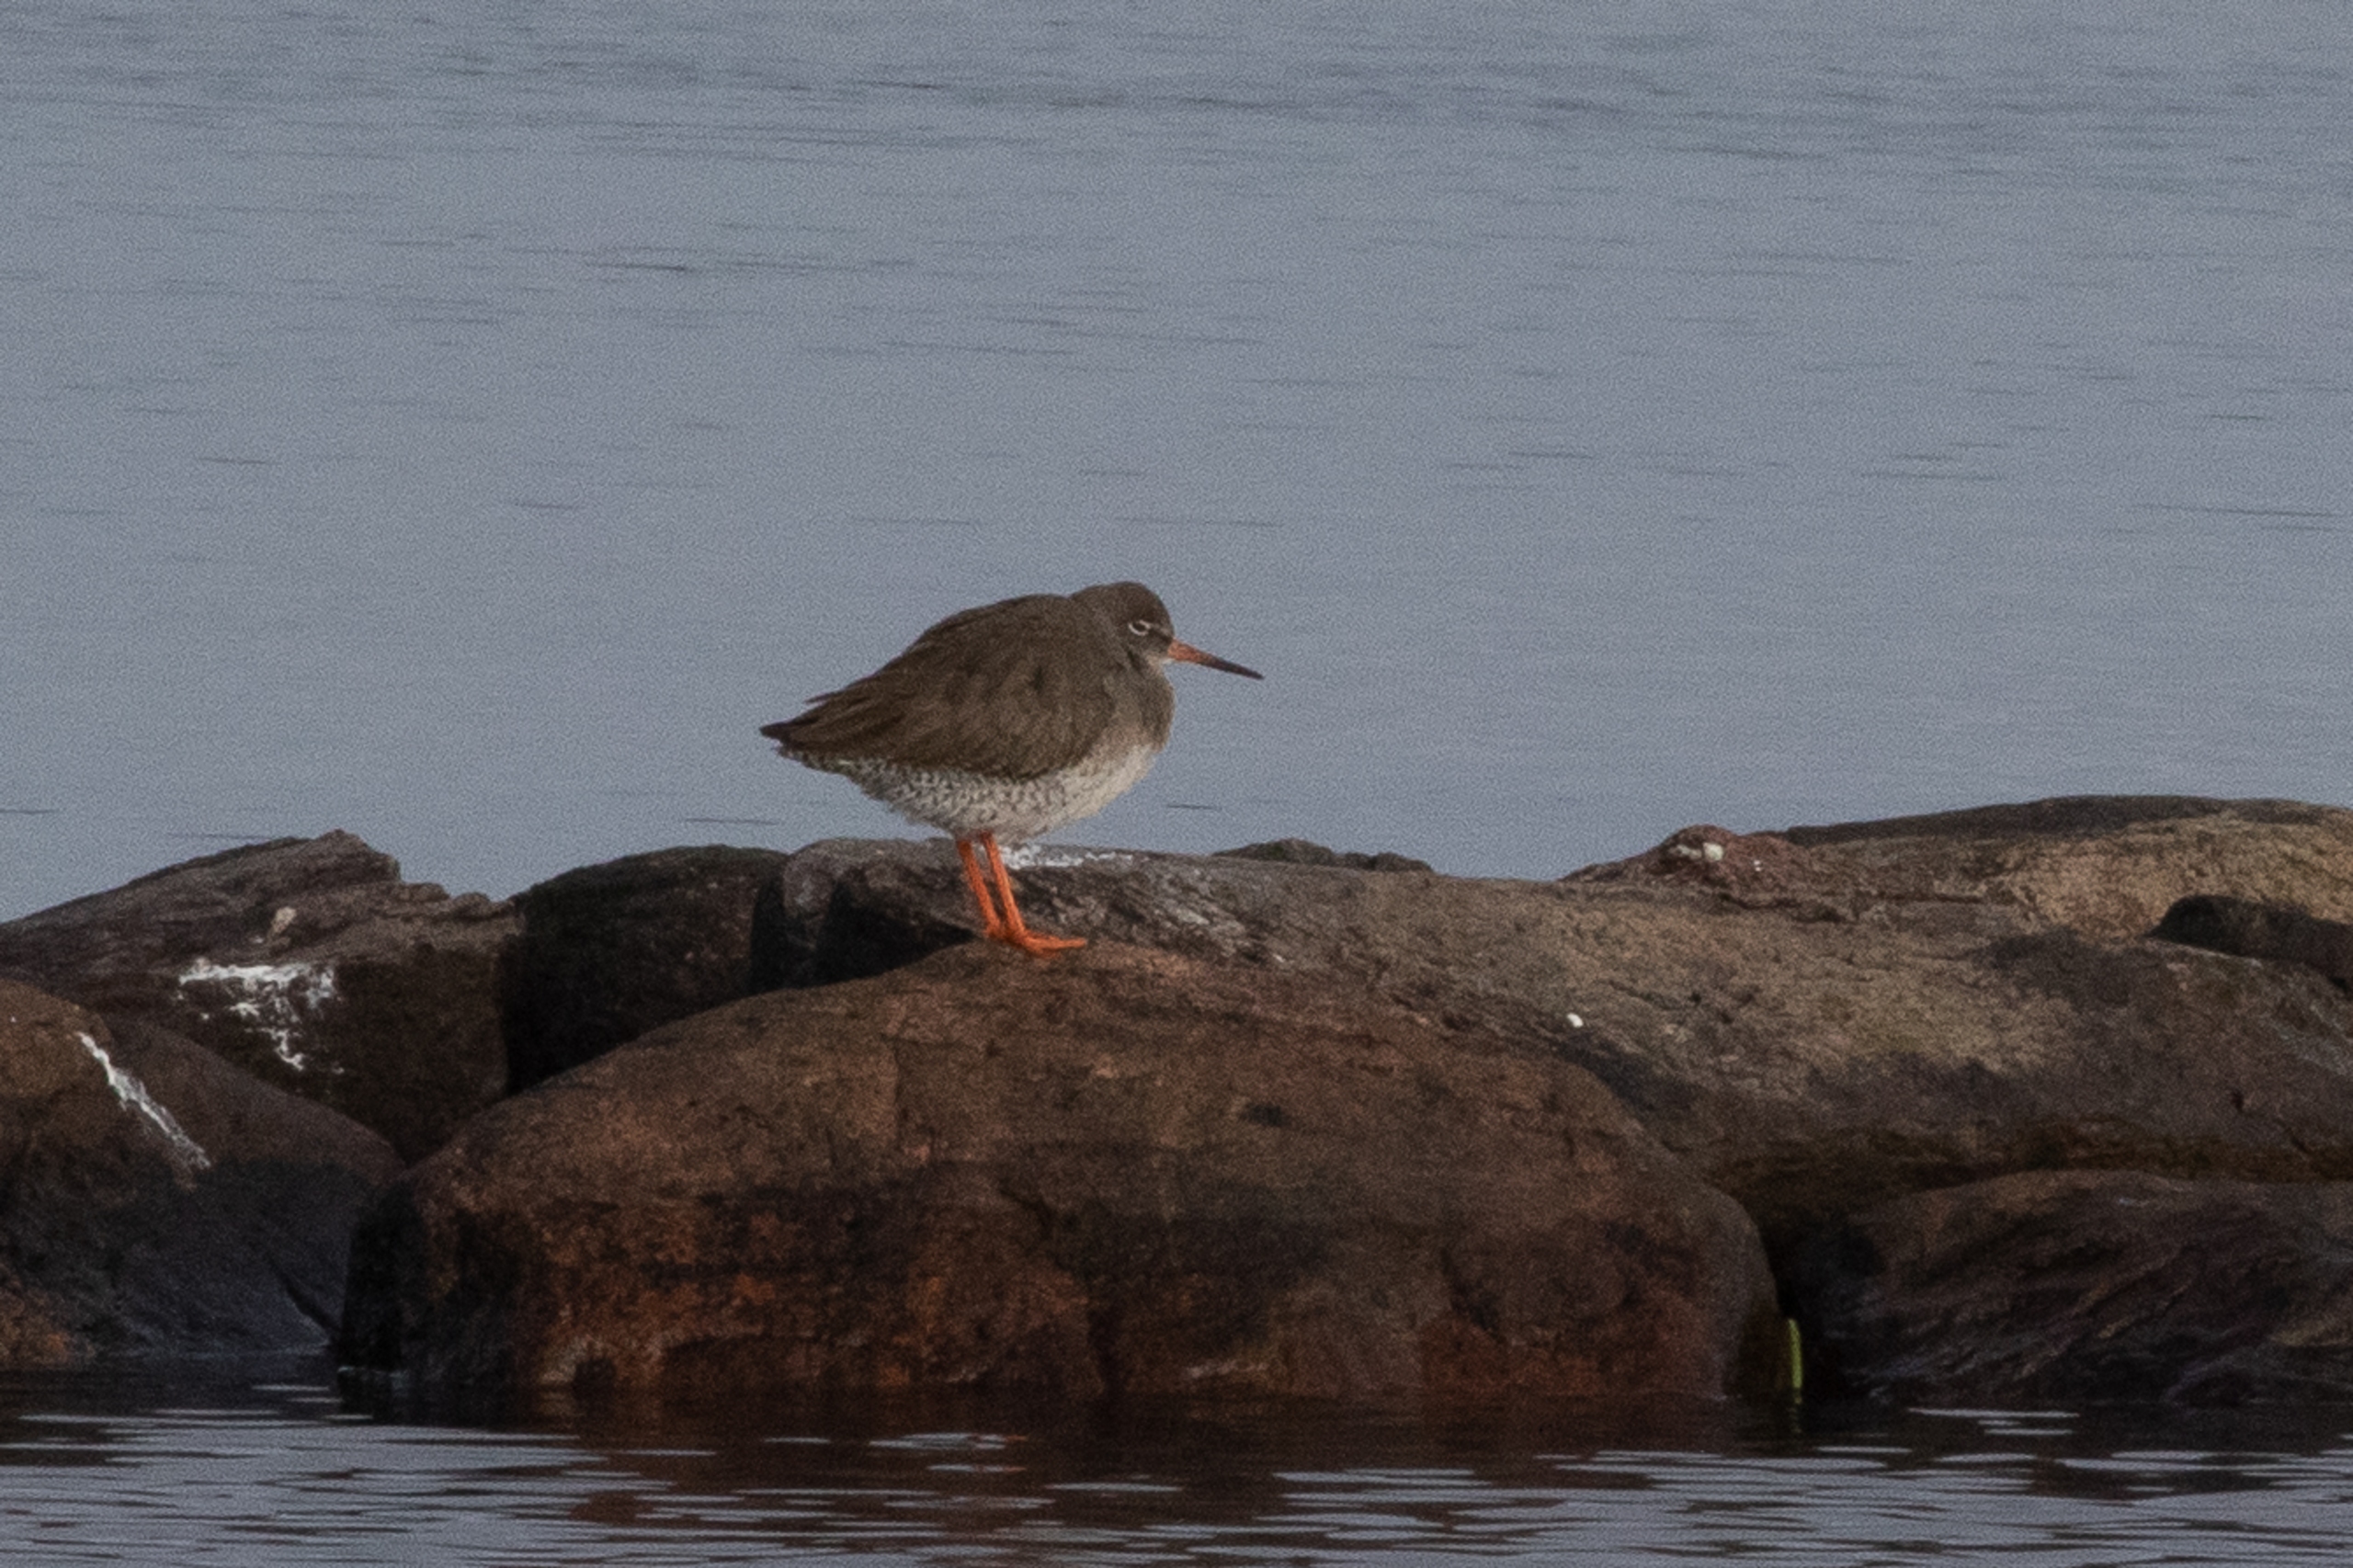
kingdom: Animalia
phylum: Chordata
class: Aves
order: Charadriiformes
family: Scolopacidae
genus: Tringa
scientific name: Tringa totanus
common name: Islandsk rødben
